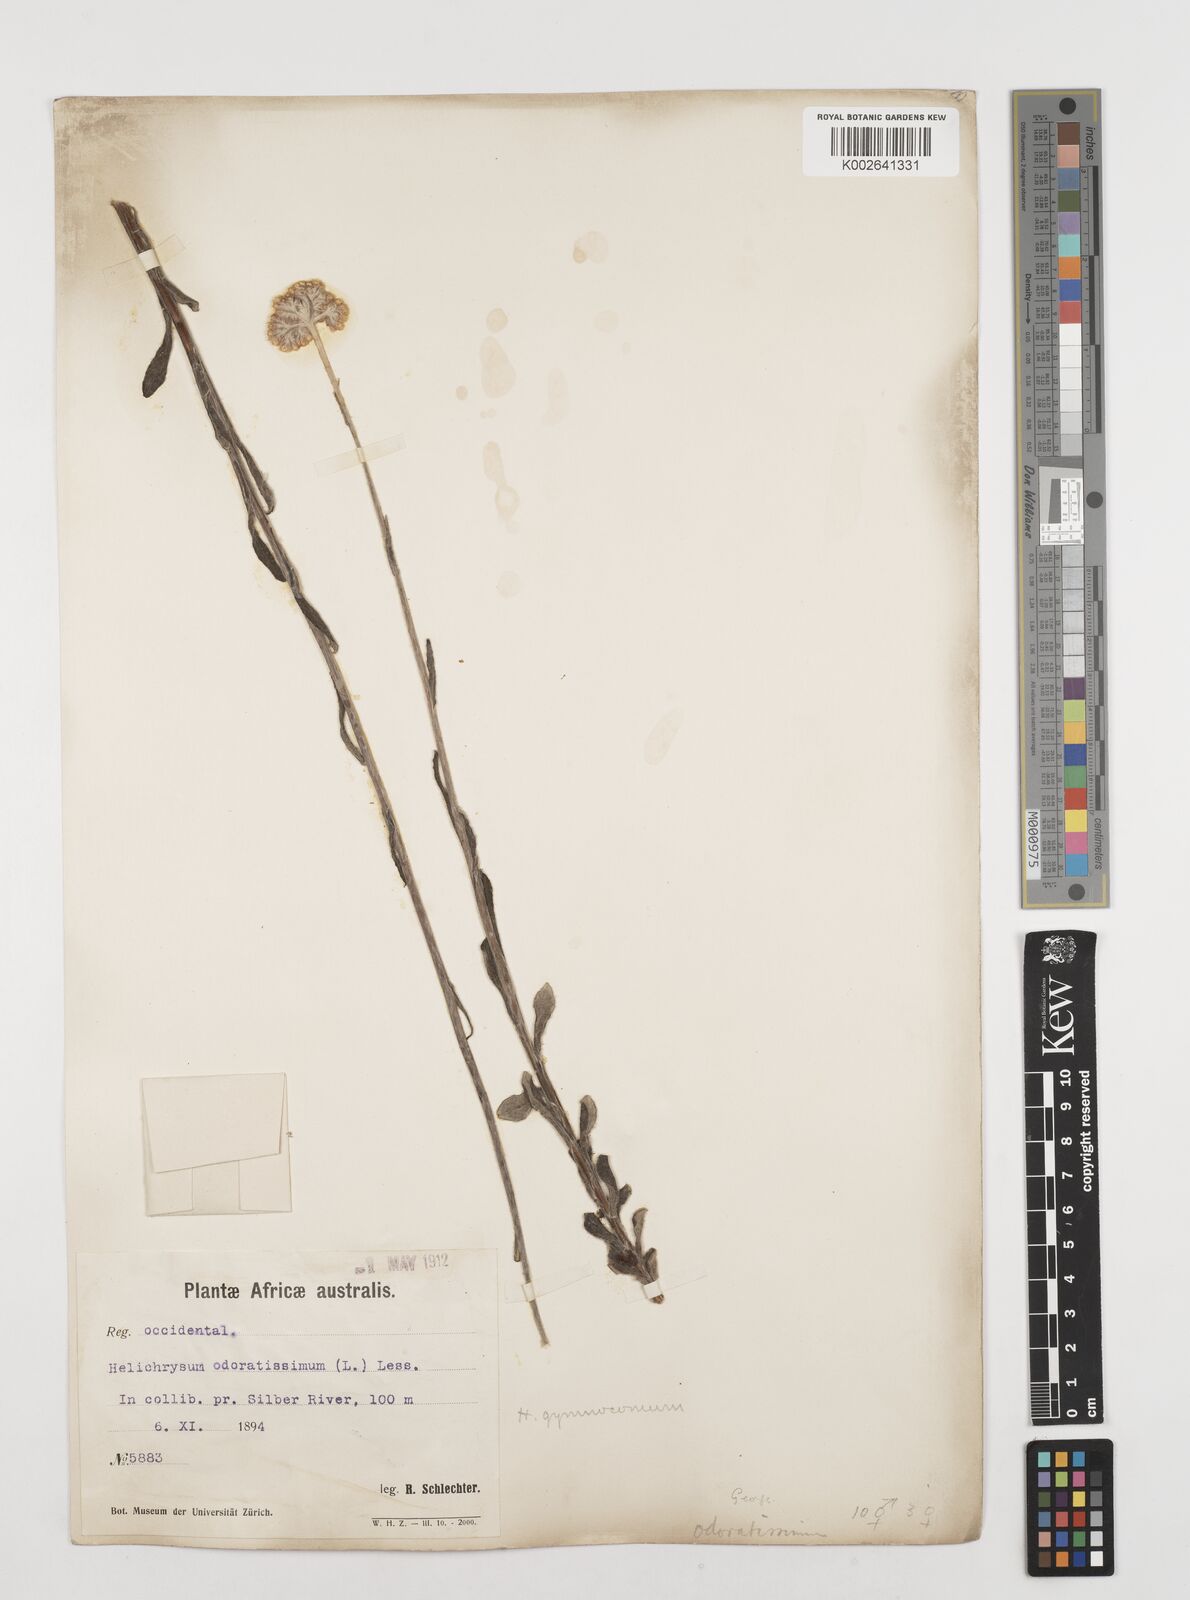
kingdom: Plantae
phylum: Tracheophyta
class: Magnoliopsida
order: Asterales
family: Asteraceae
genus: Helichrysum
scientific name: Helichrysum odoratissimum
